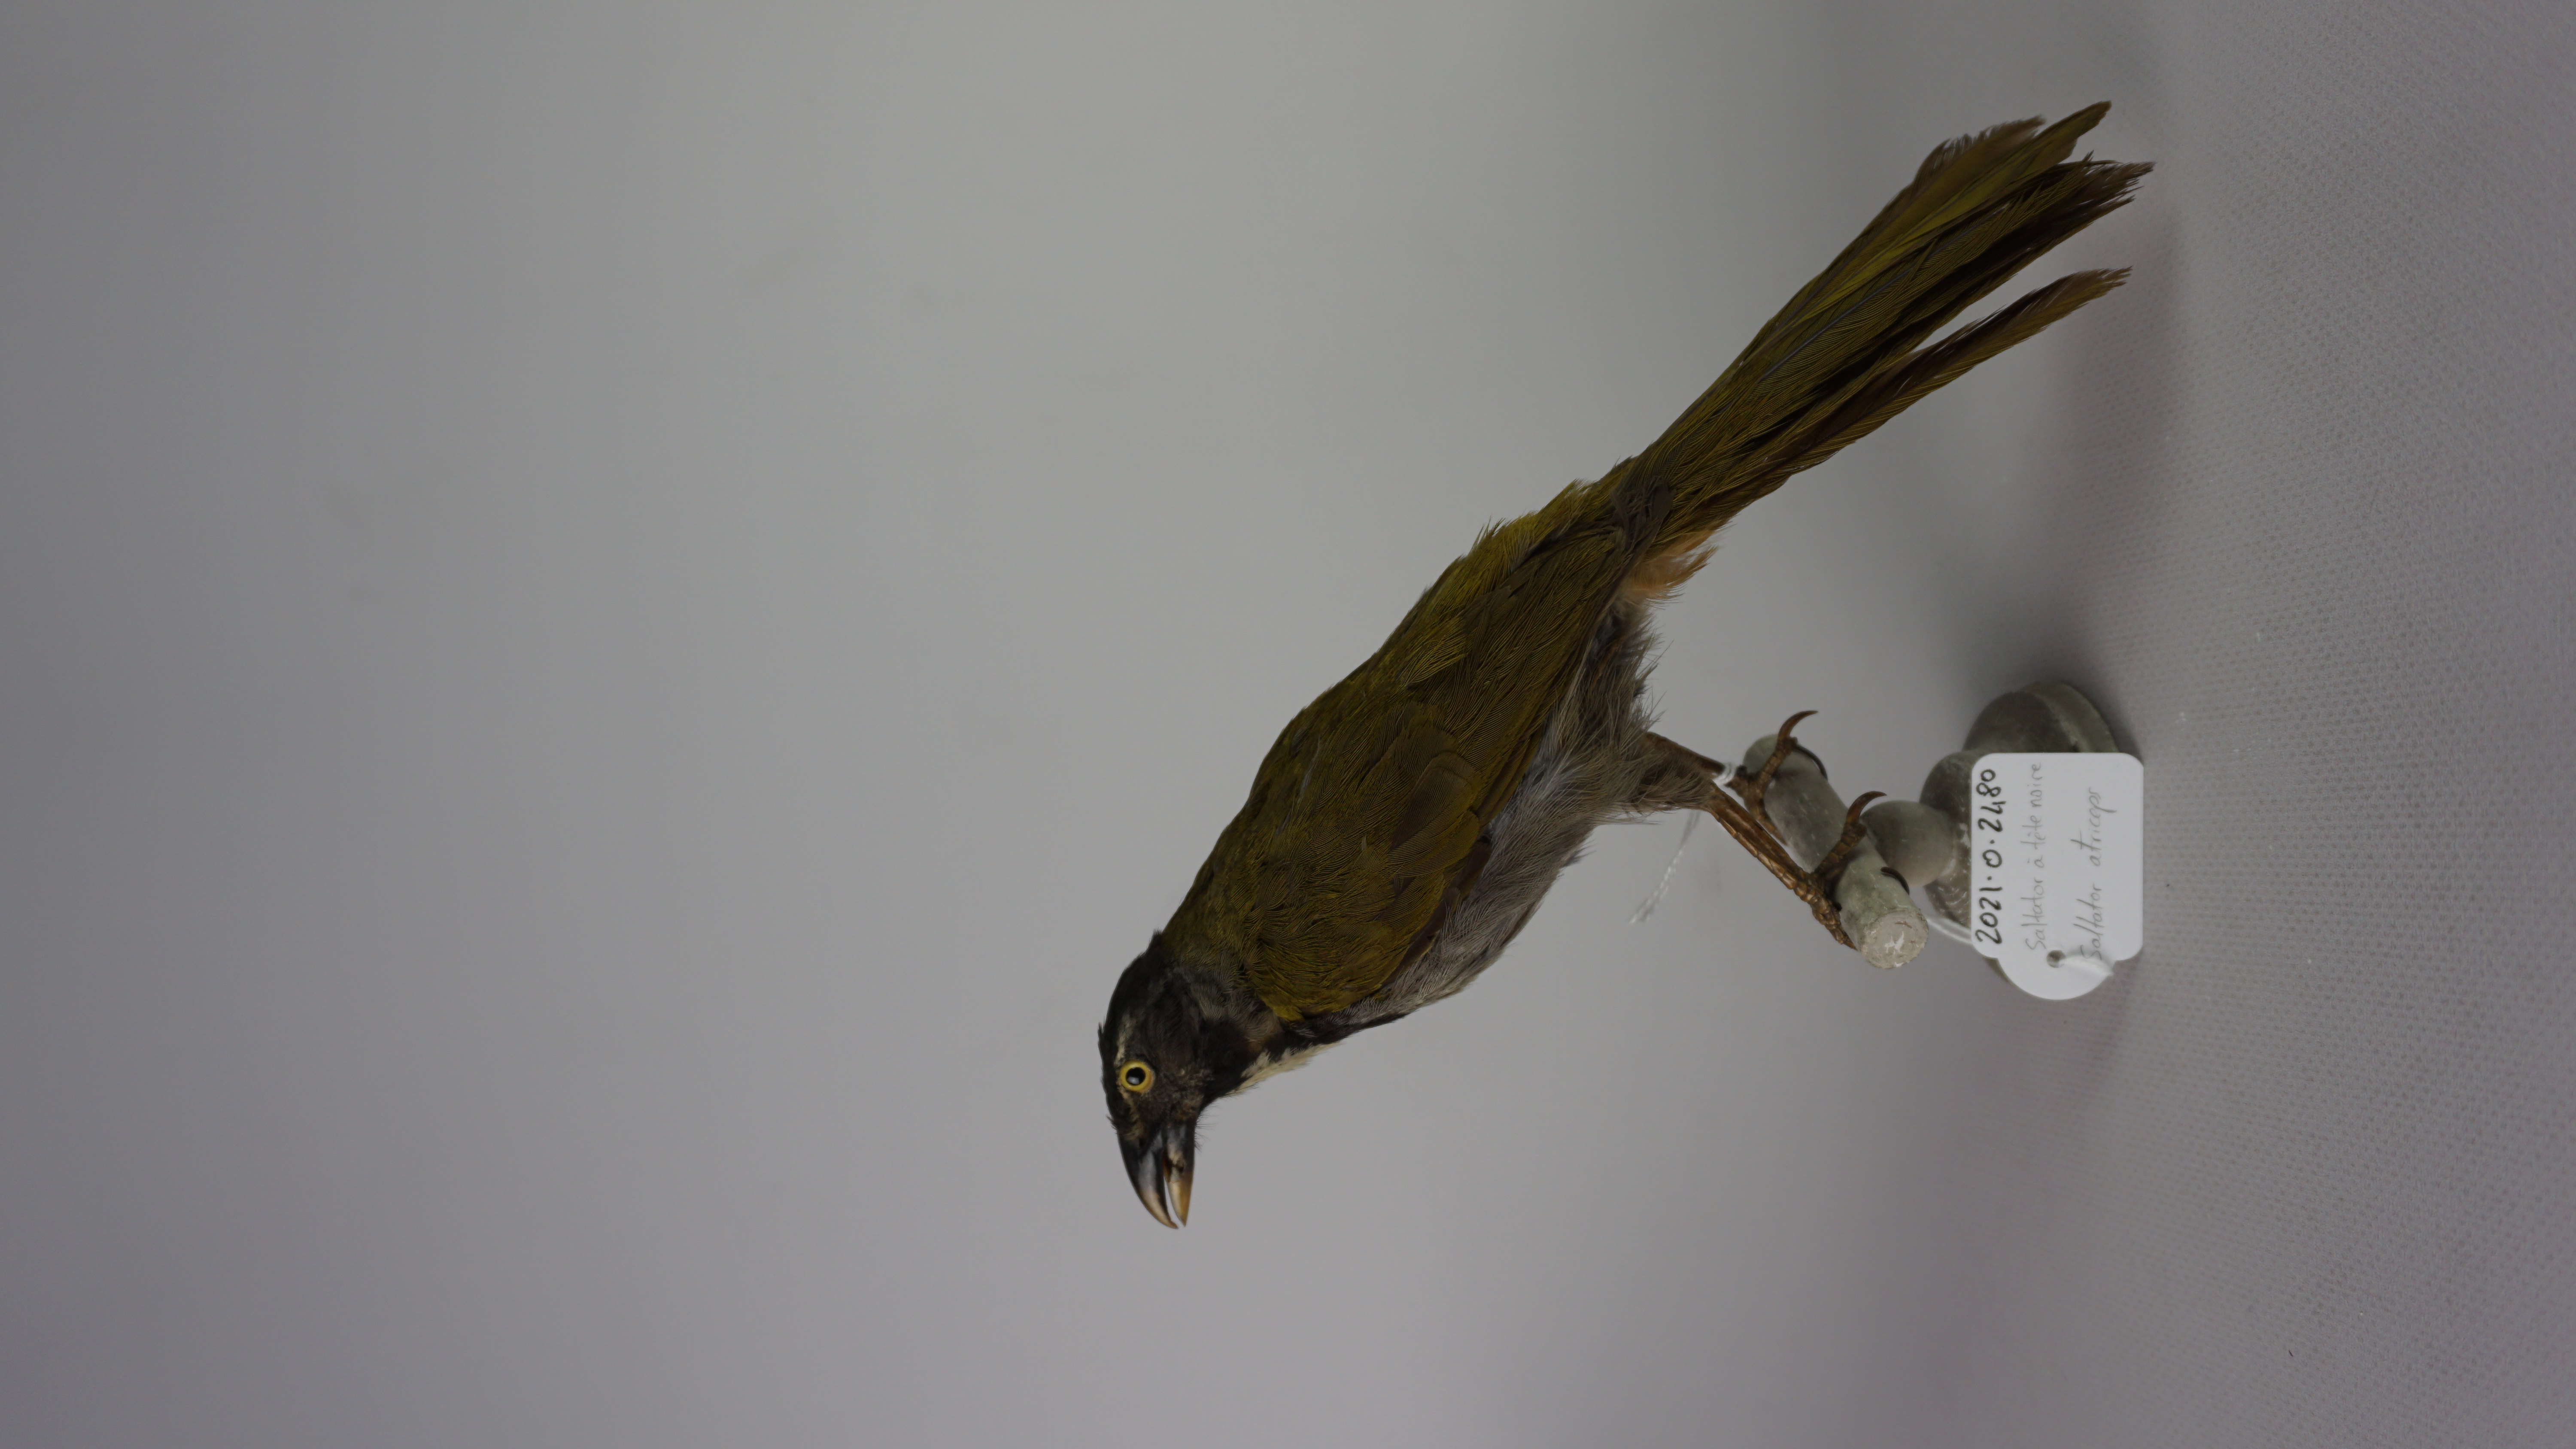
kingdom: Animalia
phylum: Chordata
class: Aves
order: Passeriformes
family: Thraupidae
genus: Saltator
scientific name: Saltator atriceps
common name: Black-headed saltator
